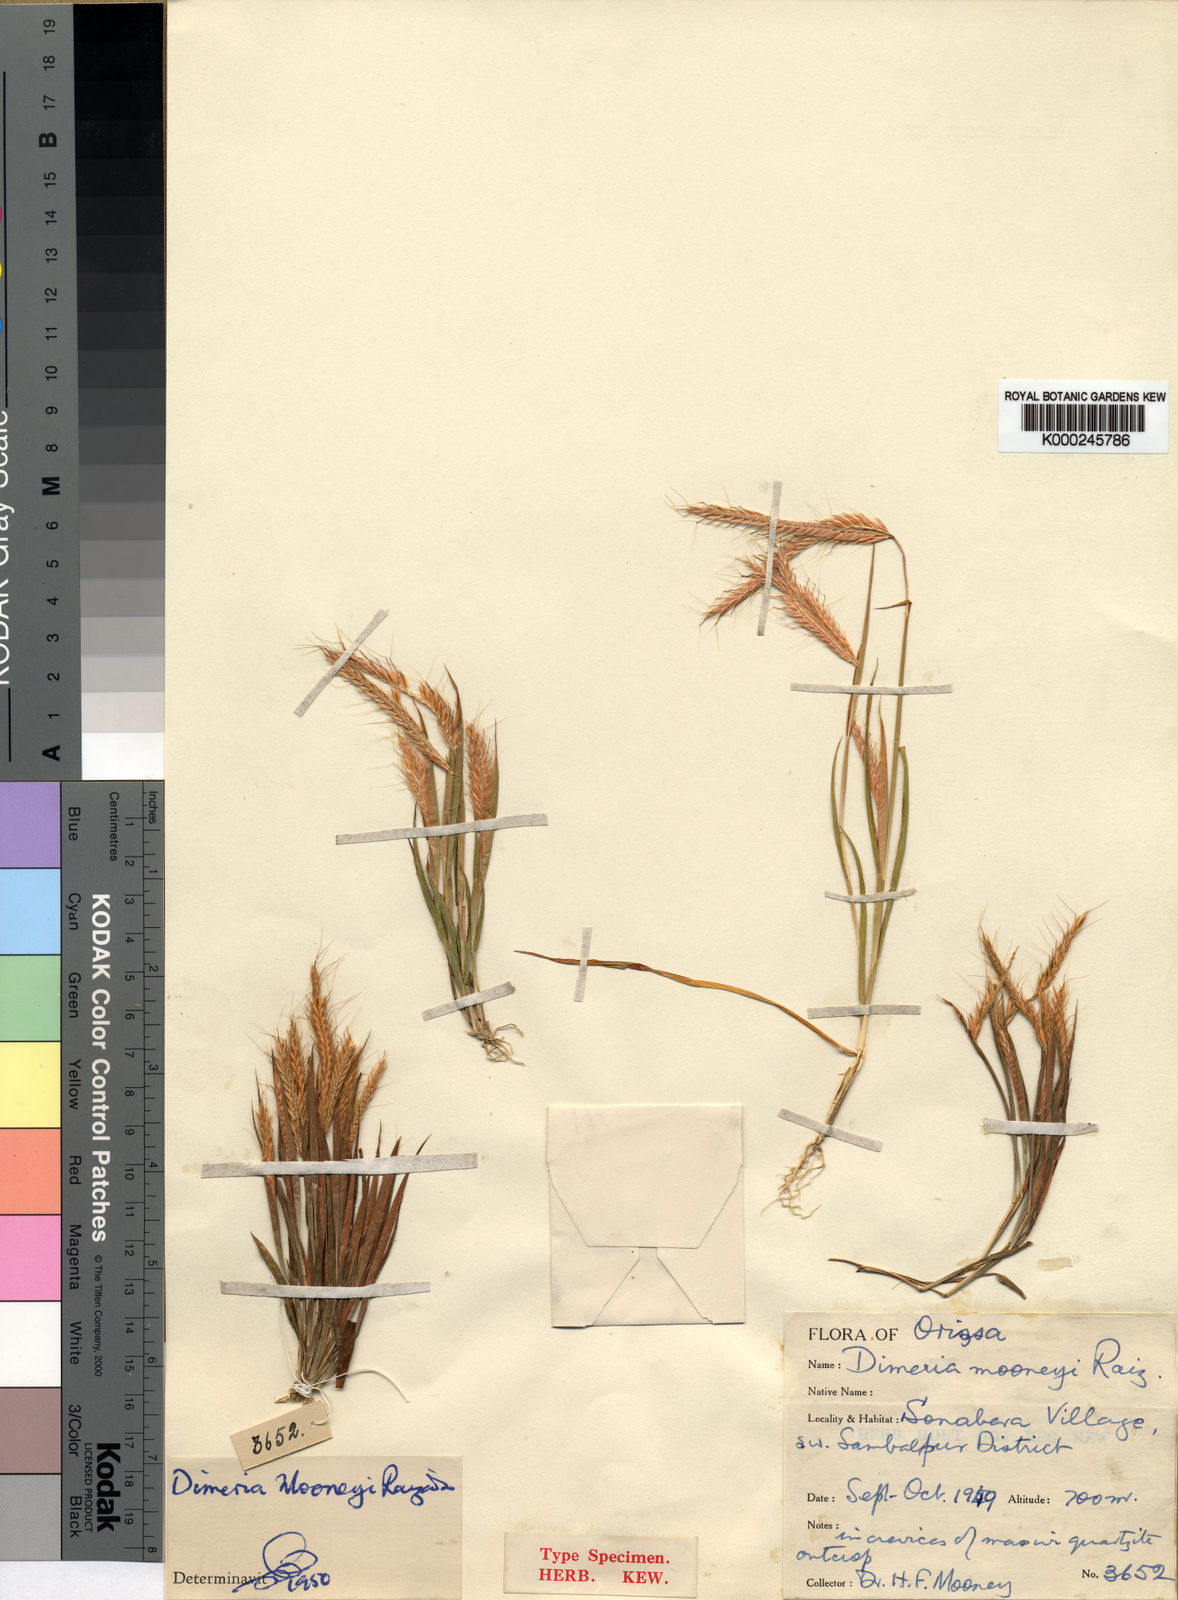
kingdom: Plantae
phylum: Tracheophyta
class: Liliopsida
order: Poales
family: Poaceae
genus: Dimeria
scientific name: Dimeria mooneyi
